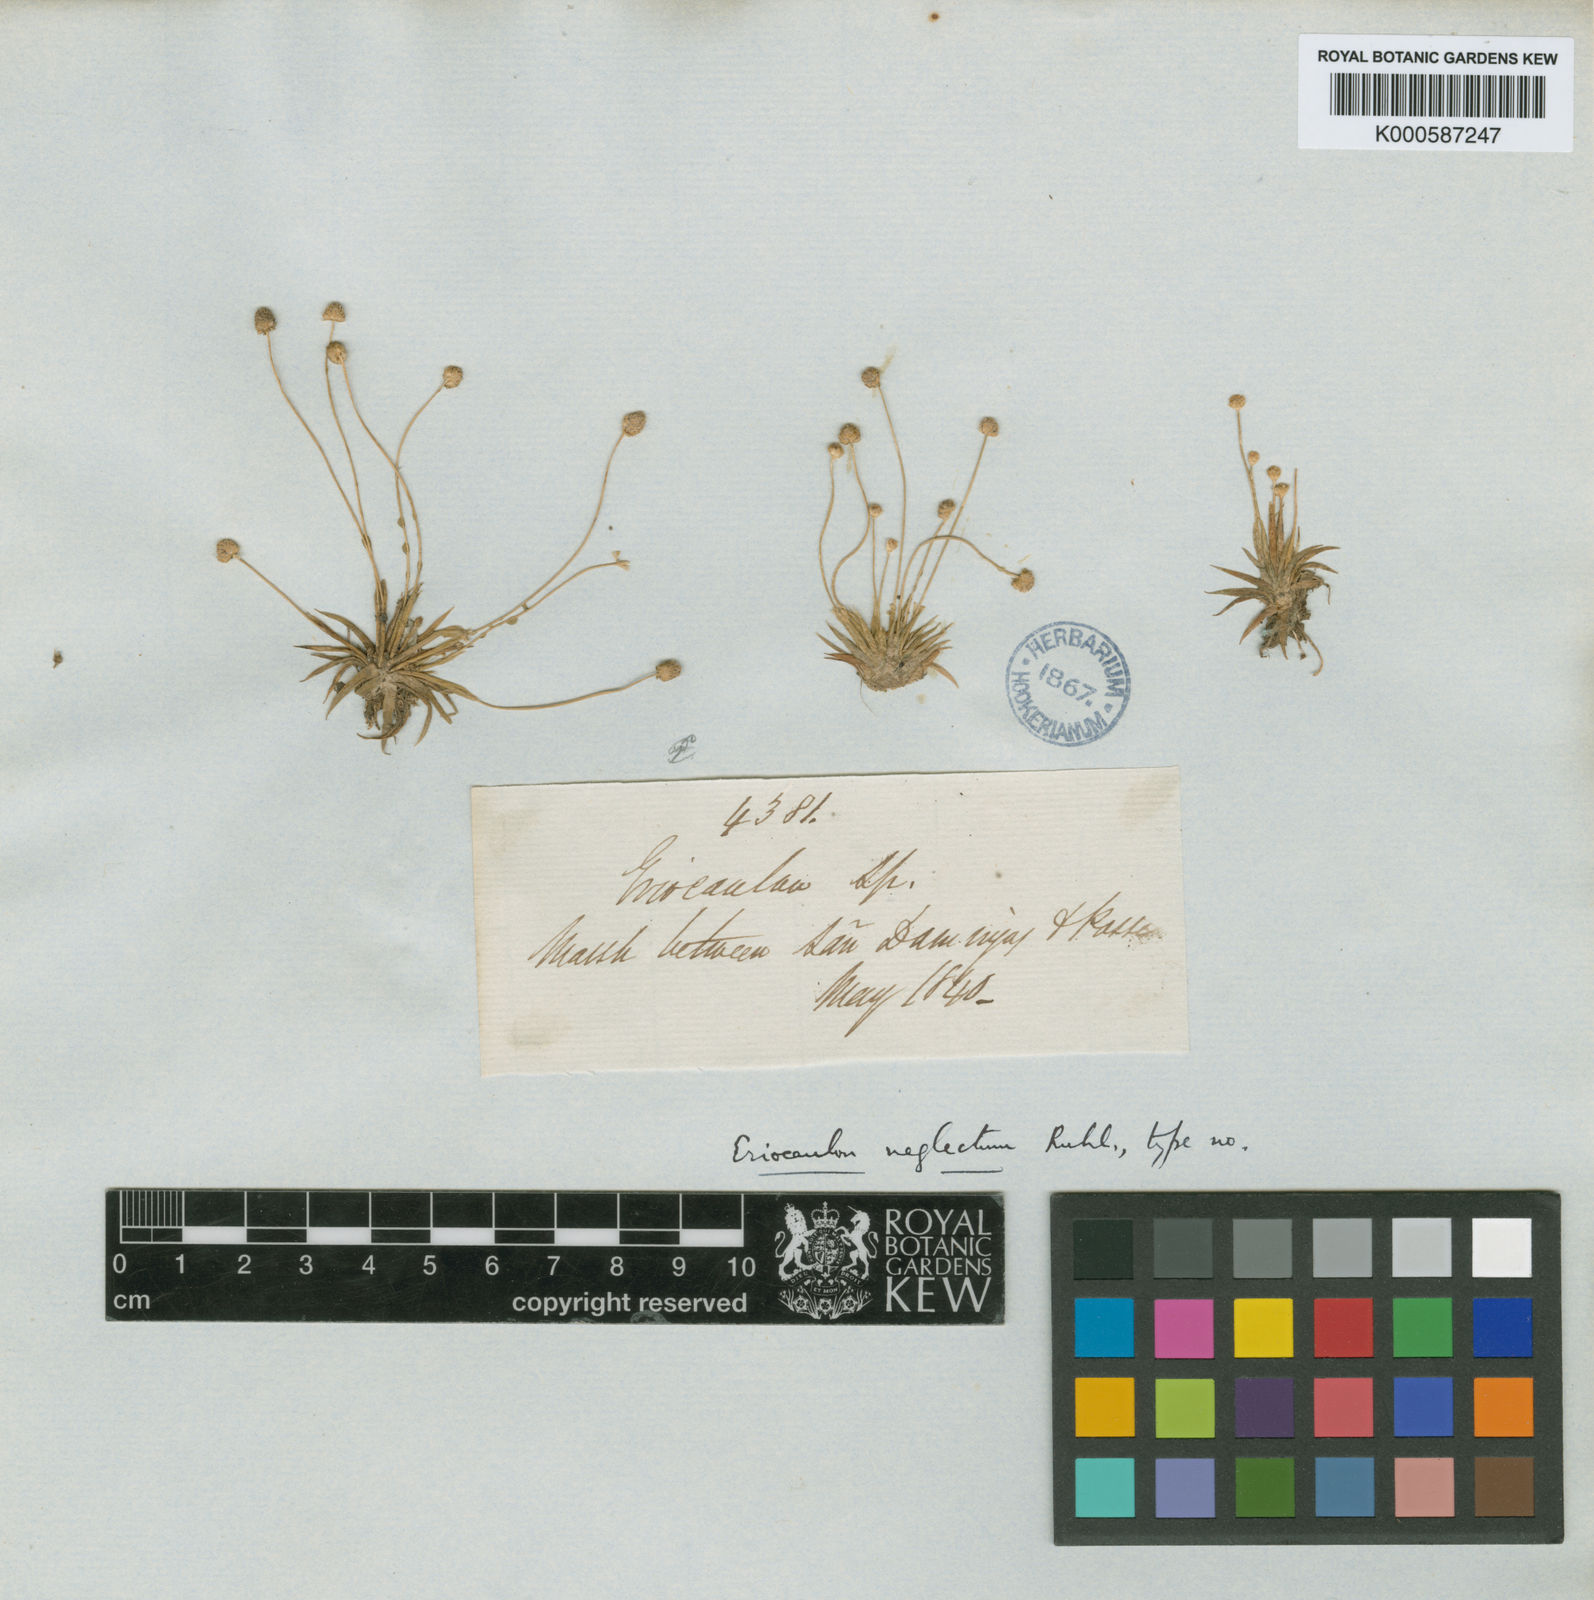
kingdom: Plantae
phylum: Tracheophyta
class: Liliopsida
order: Poales
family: Eriocaulaceae
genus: Eriocaulon
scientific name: Eriocaulon neglectum
